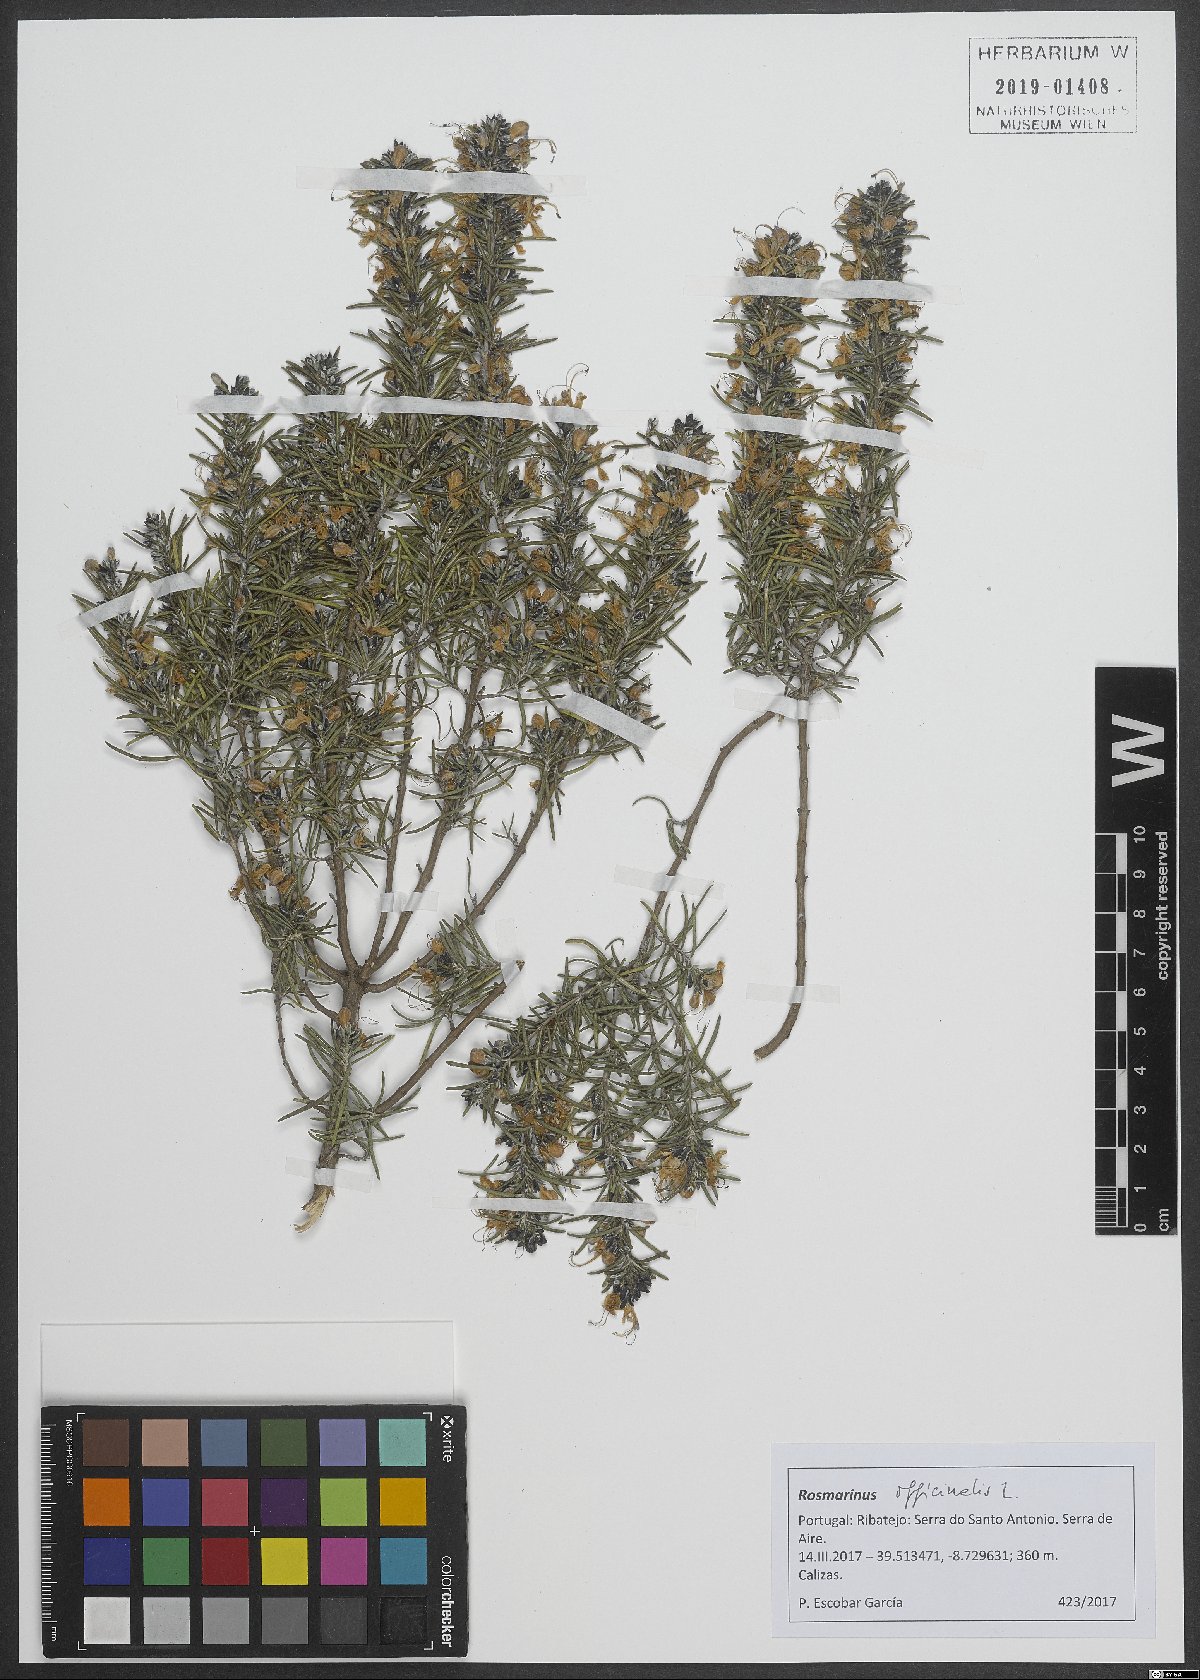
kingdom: Plantae
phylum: Tracheophyta
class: Magnoliopsida
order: Lamiales
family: Lamiaceae
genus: Salvia
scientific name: Salvia rosmarinus
